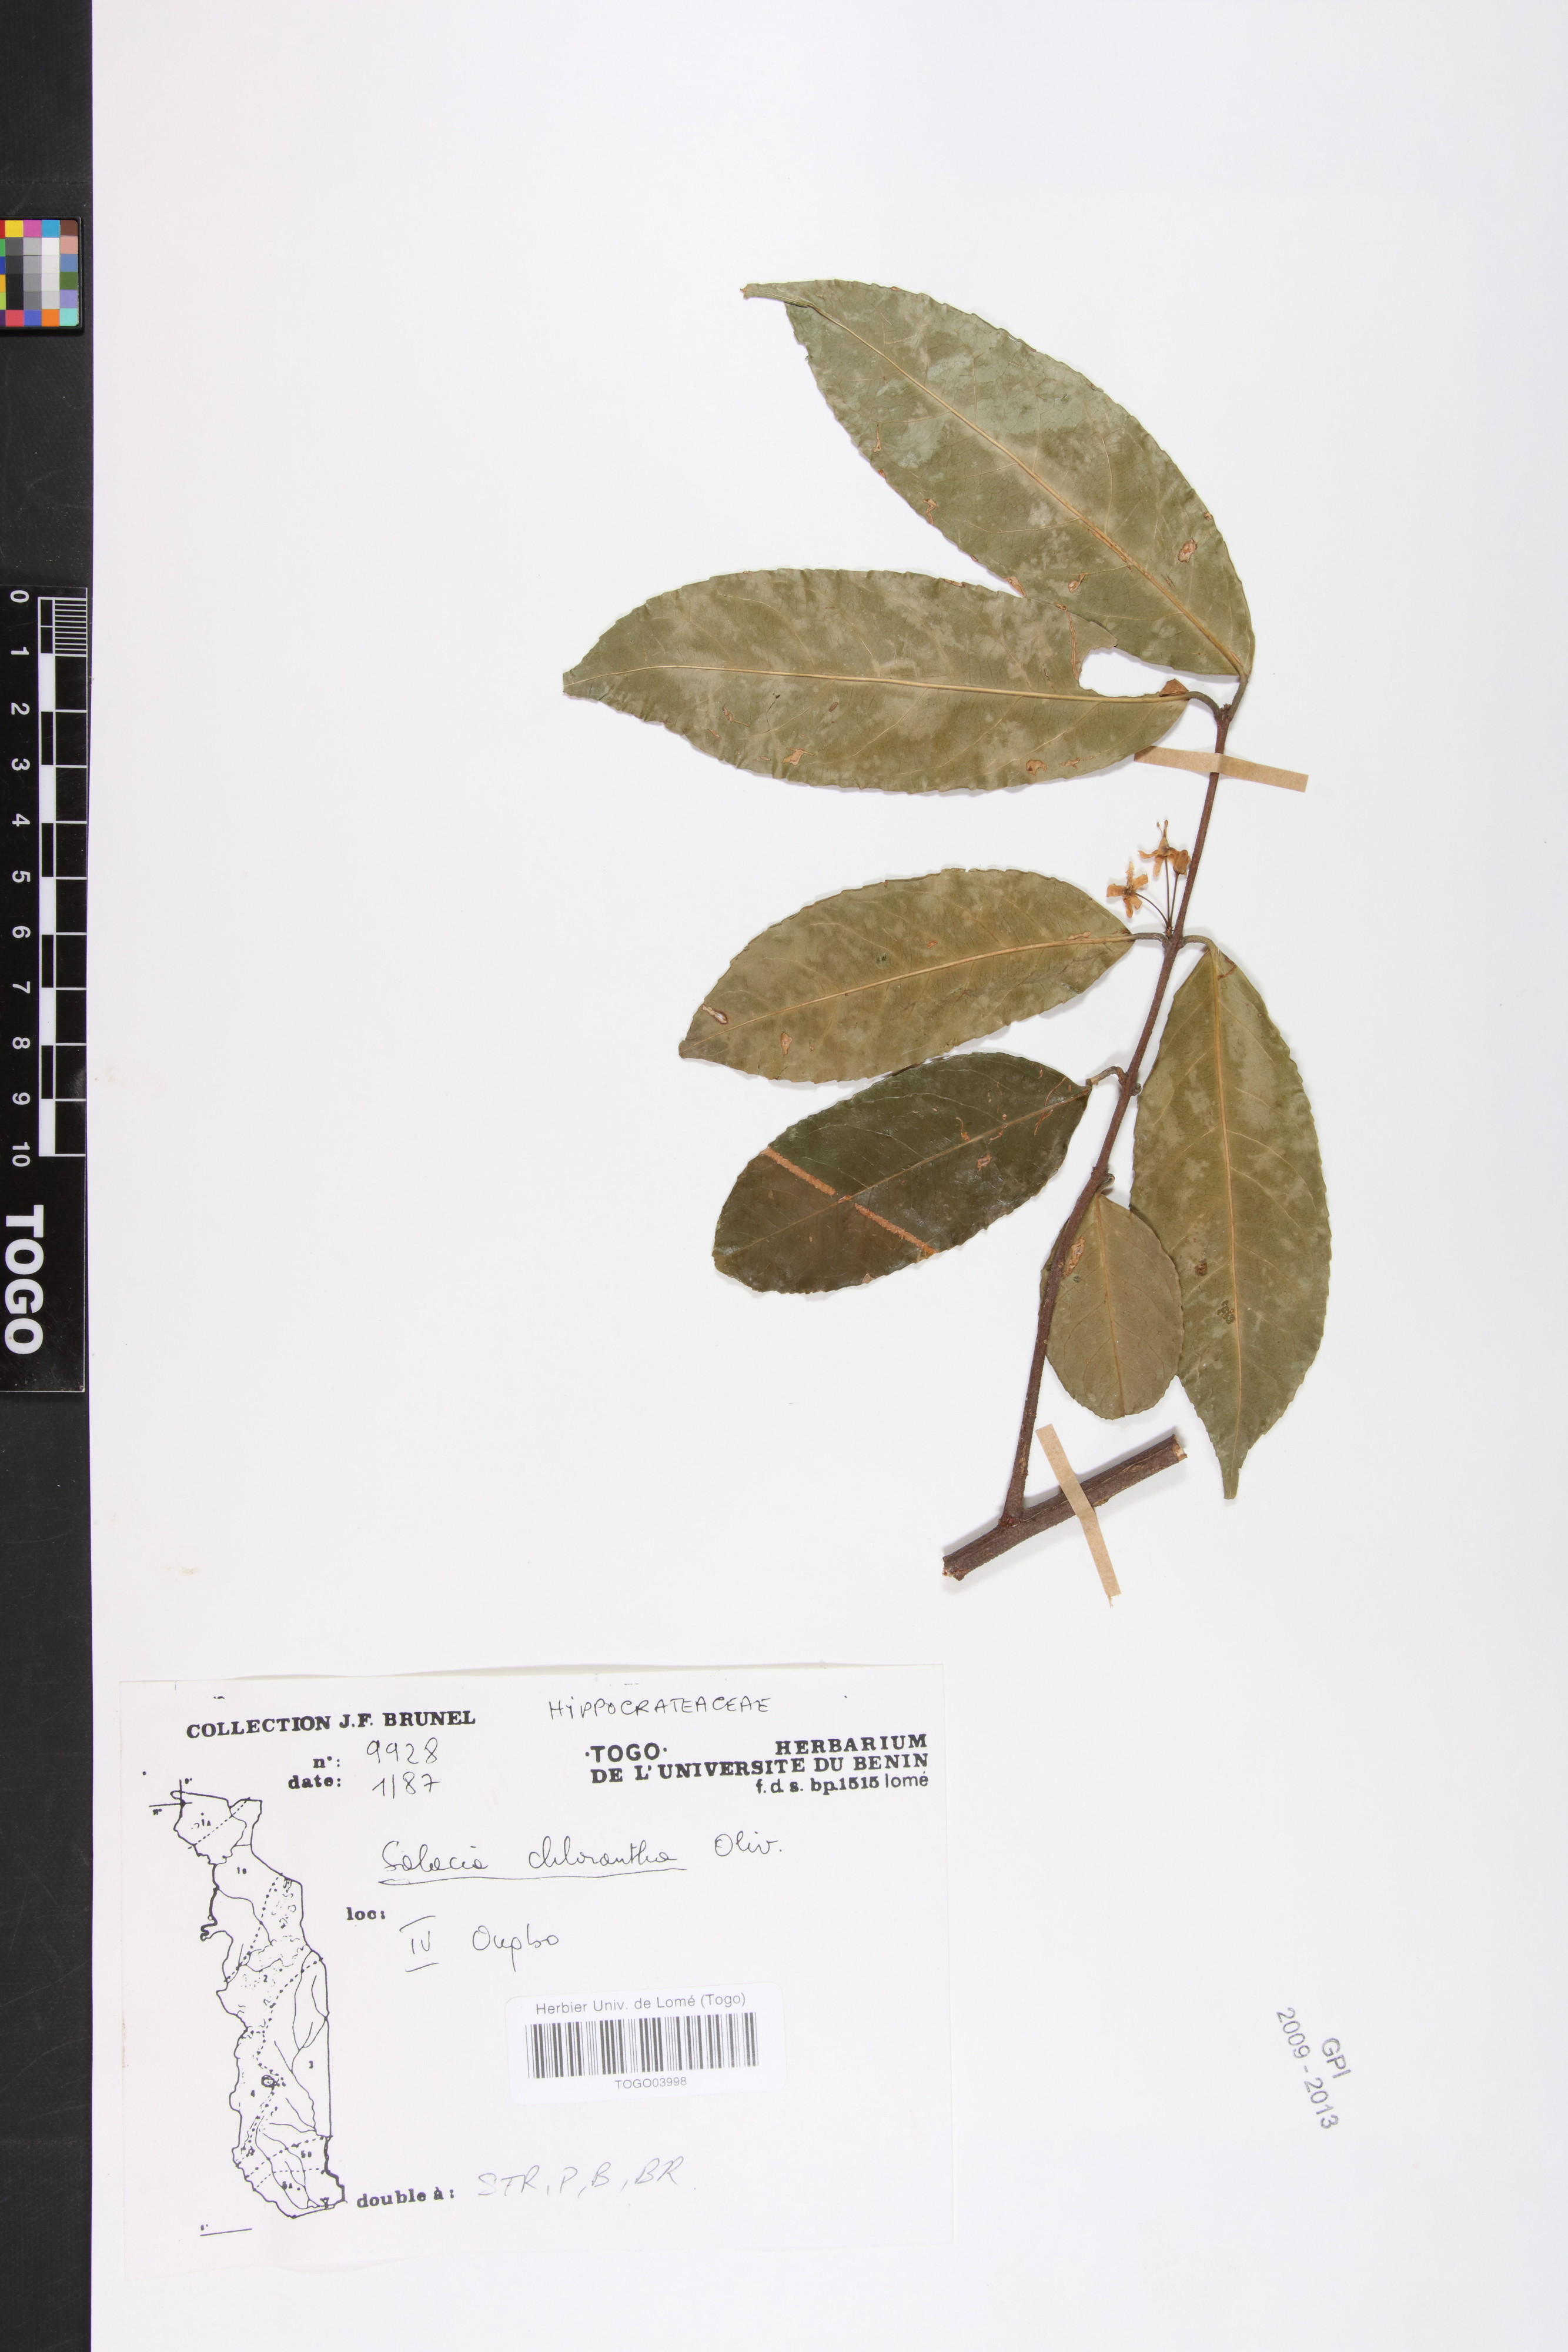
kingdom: Plantae
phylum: Tracheophyta
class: Magnoliopsida
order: Celastrales
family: Celastraceae
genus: Salacia
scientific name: Salacia chlorantha
